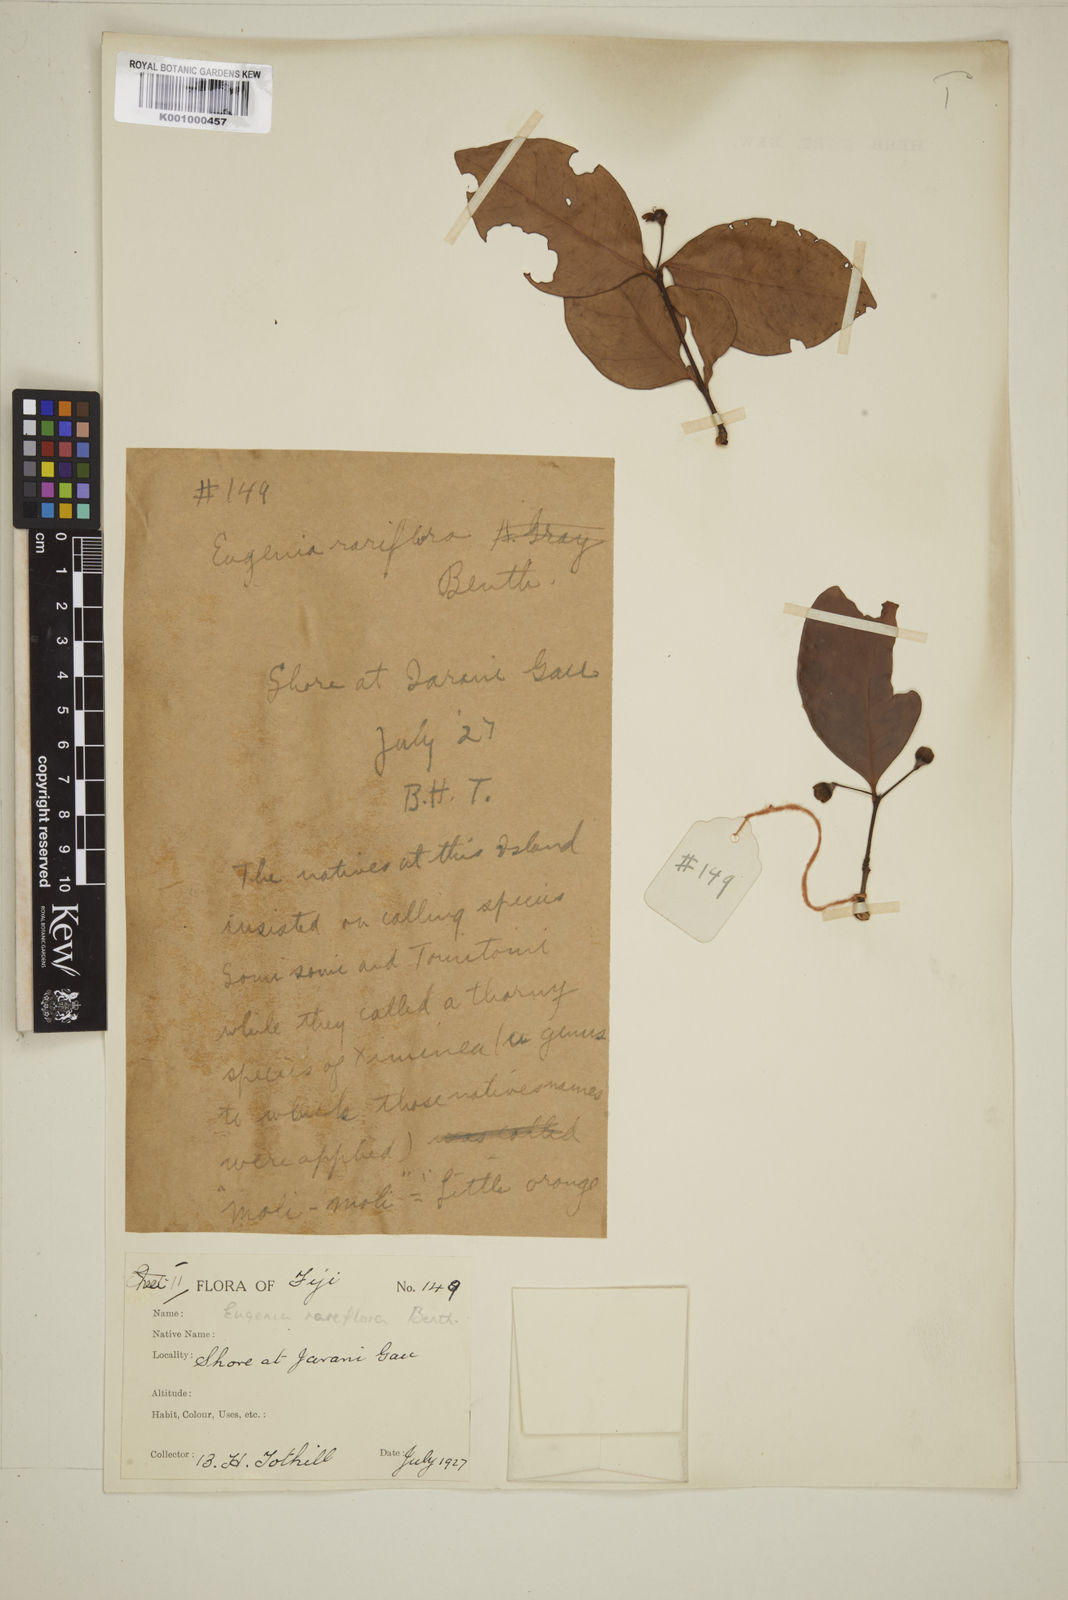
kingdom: Plantae
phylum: Tracheophyta
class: Magnoliopsida
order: Myrtales
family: Myrtaceae
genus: Eugenia
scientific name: Eugenia reinwardtiana
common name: Cedar bay-cherry
